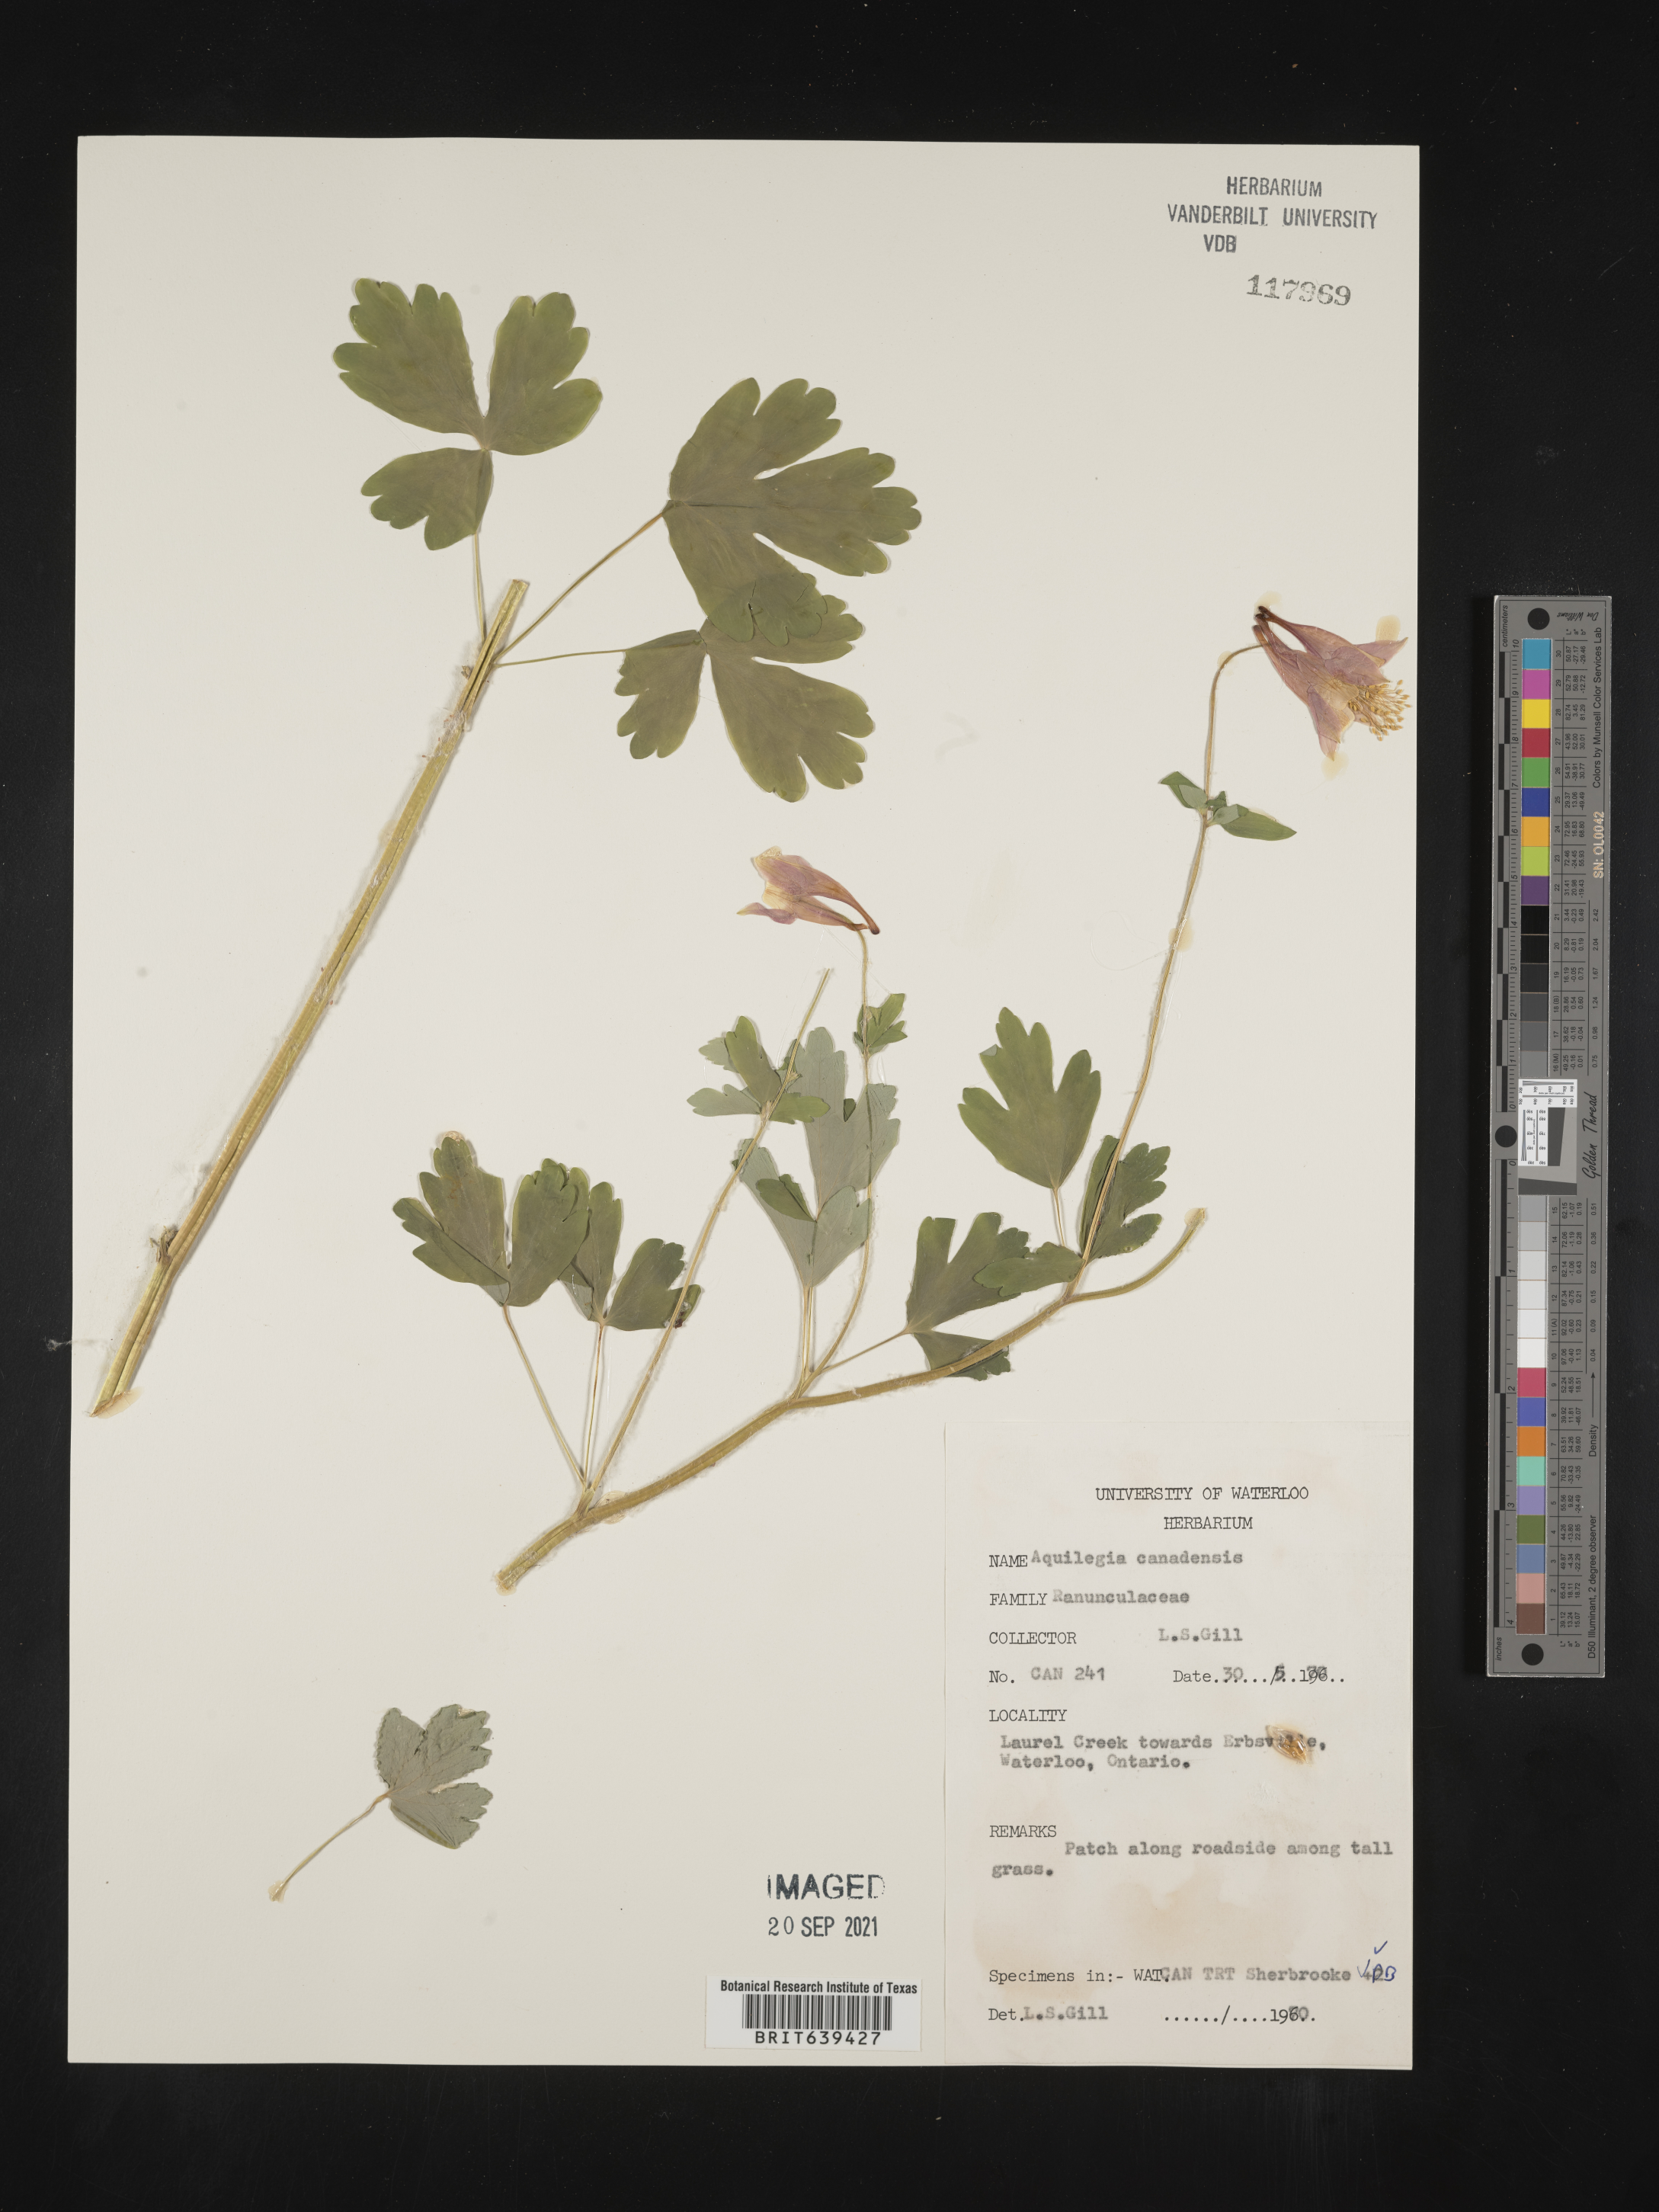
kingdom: Plantae
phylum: Tracheophyta
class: Magnoliopsida
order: Ranunculales
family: Ranunculaceae
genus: Aquilegia
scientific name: Aquilegia
